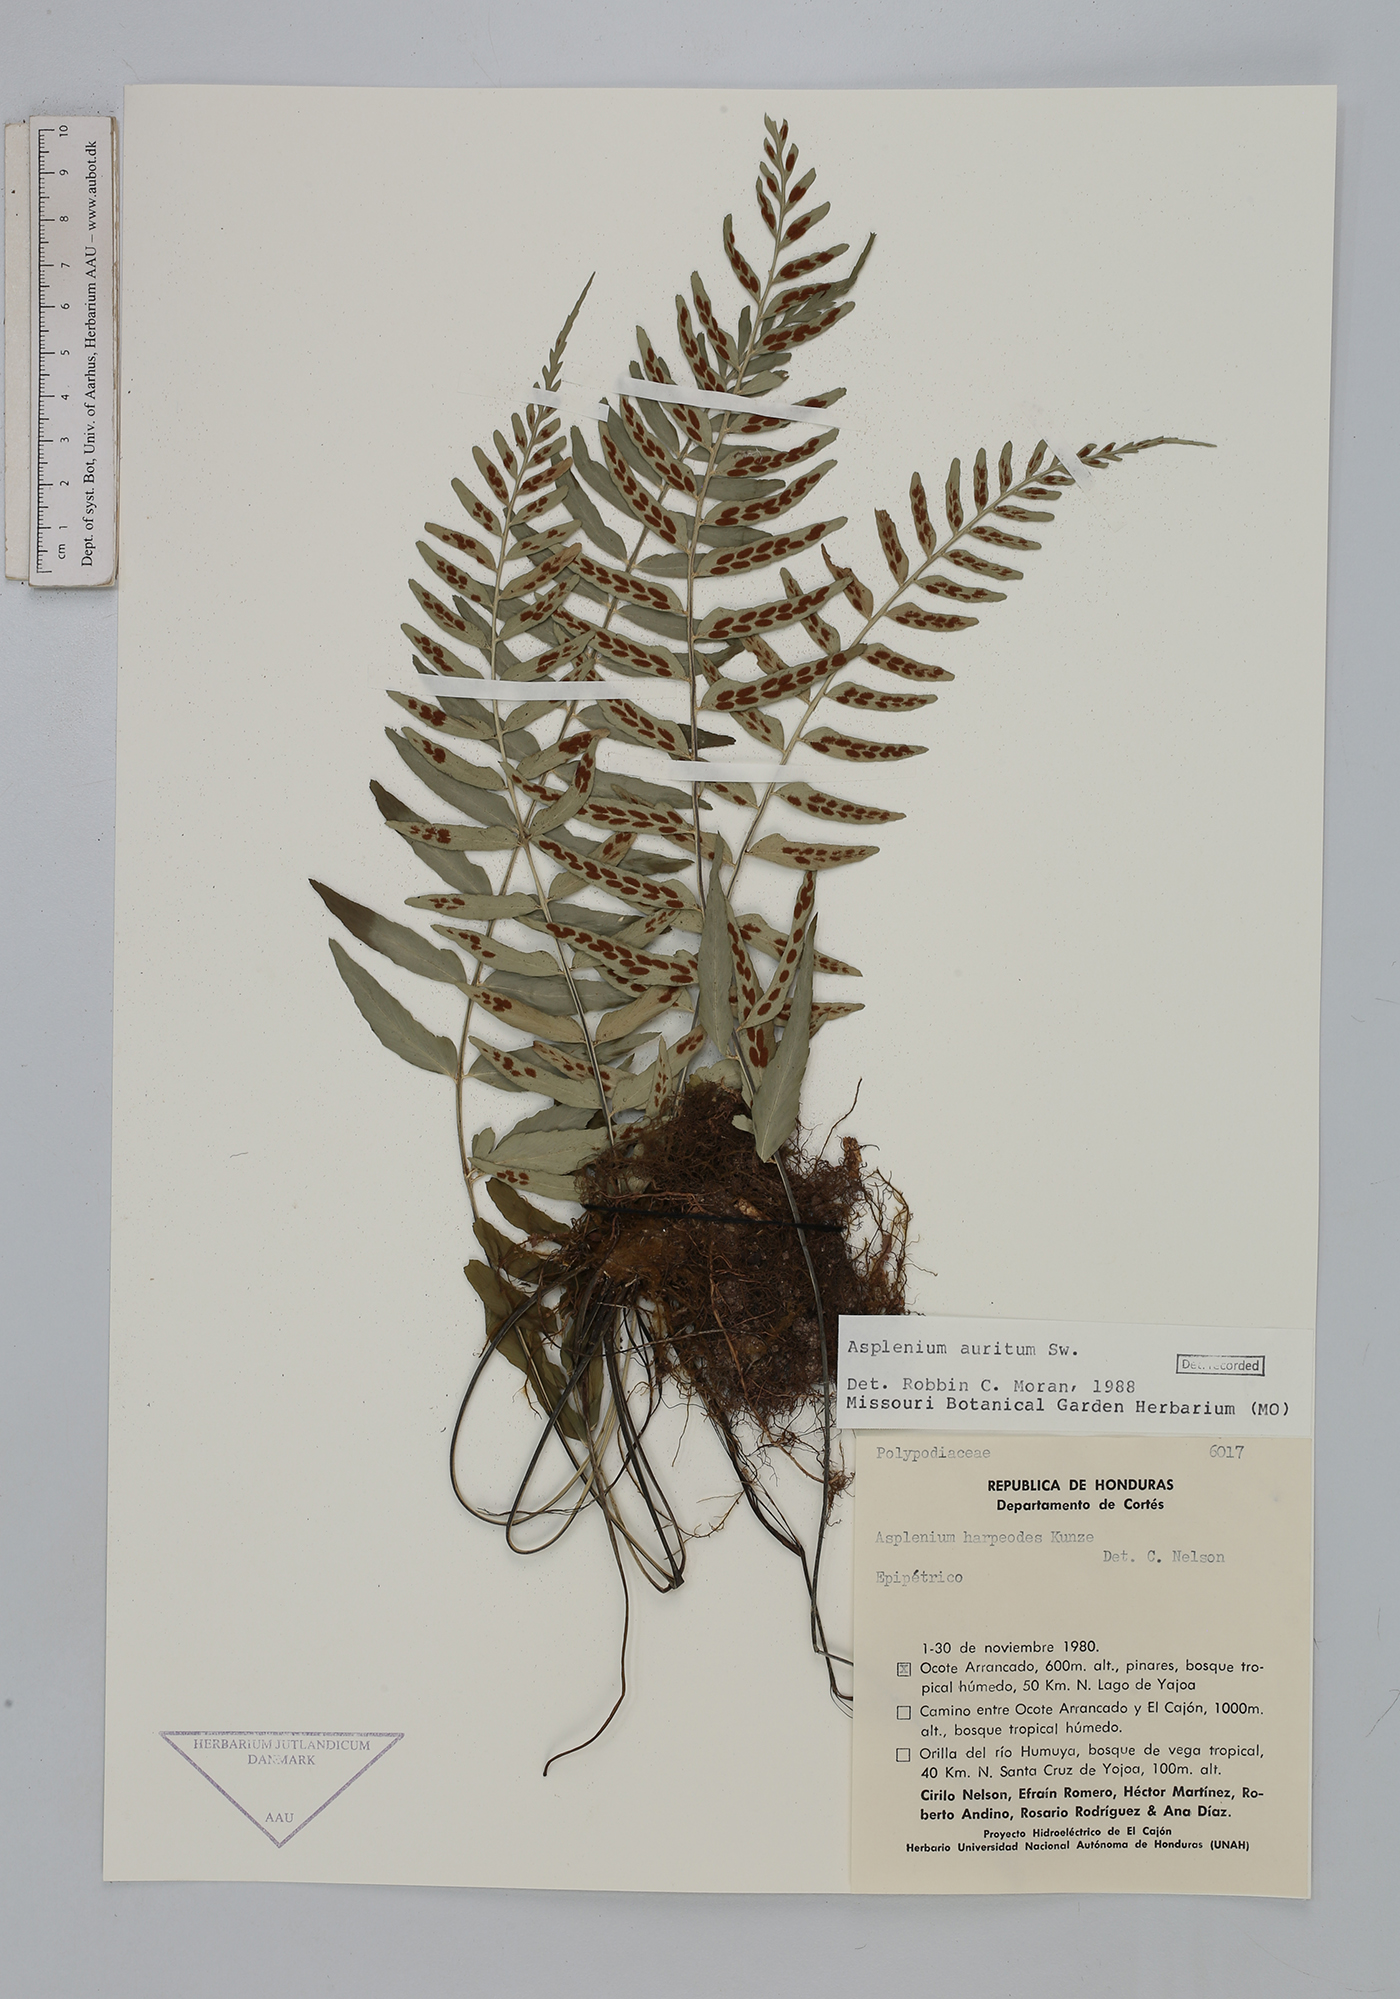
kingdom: Plantae
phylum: Tracheophyta
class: Polypodiopsida
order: Polypodiales
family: Aspleniaceae
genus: Asplenium
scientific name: Asplenium auritum
